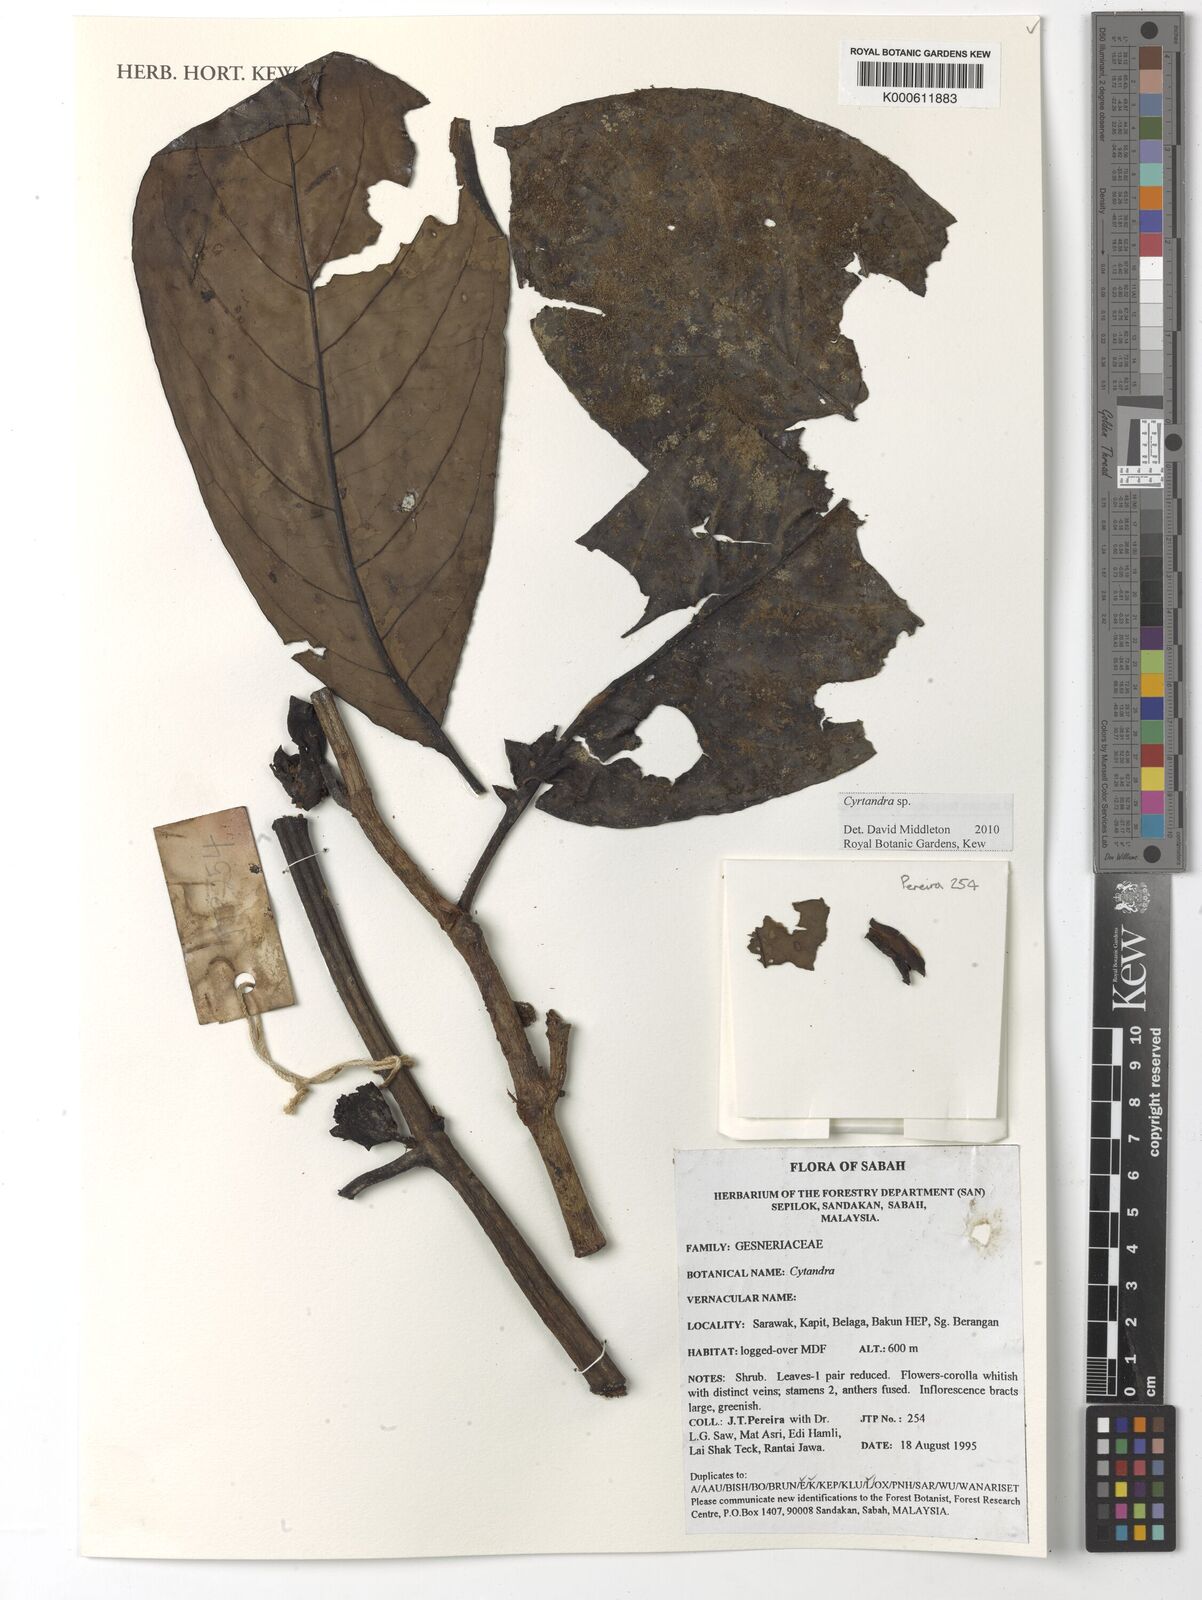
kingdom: Plantae
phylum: Tracheophyta
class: Magnoliopsida
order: Lamiales
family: Gesneriaceae
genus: Cyrtandra
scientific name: Cyrtandra
